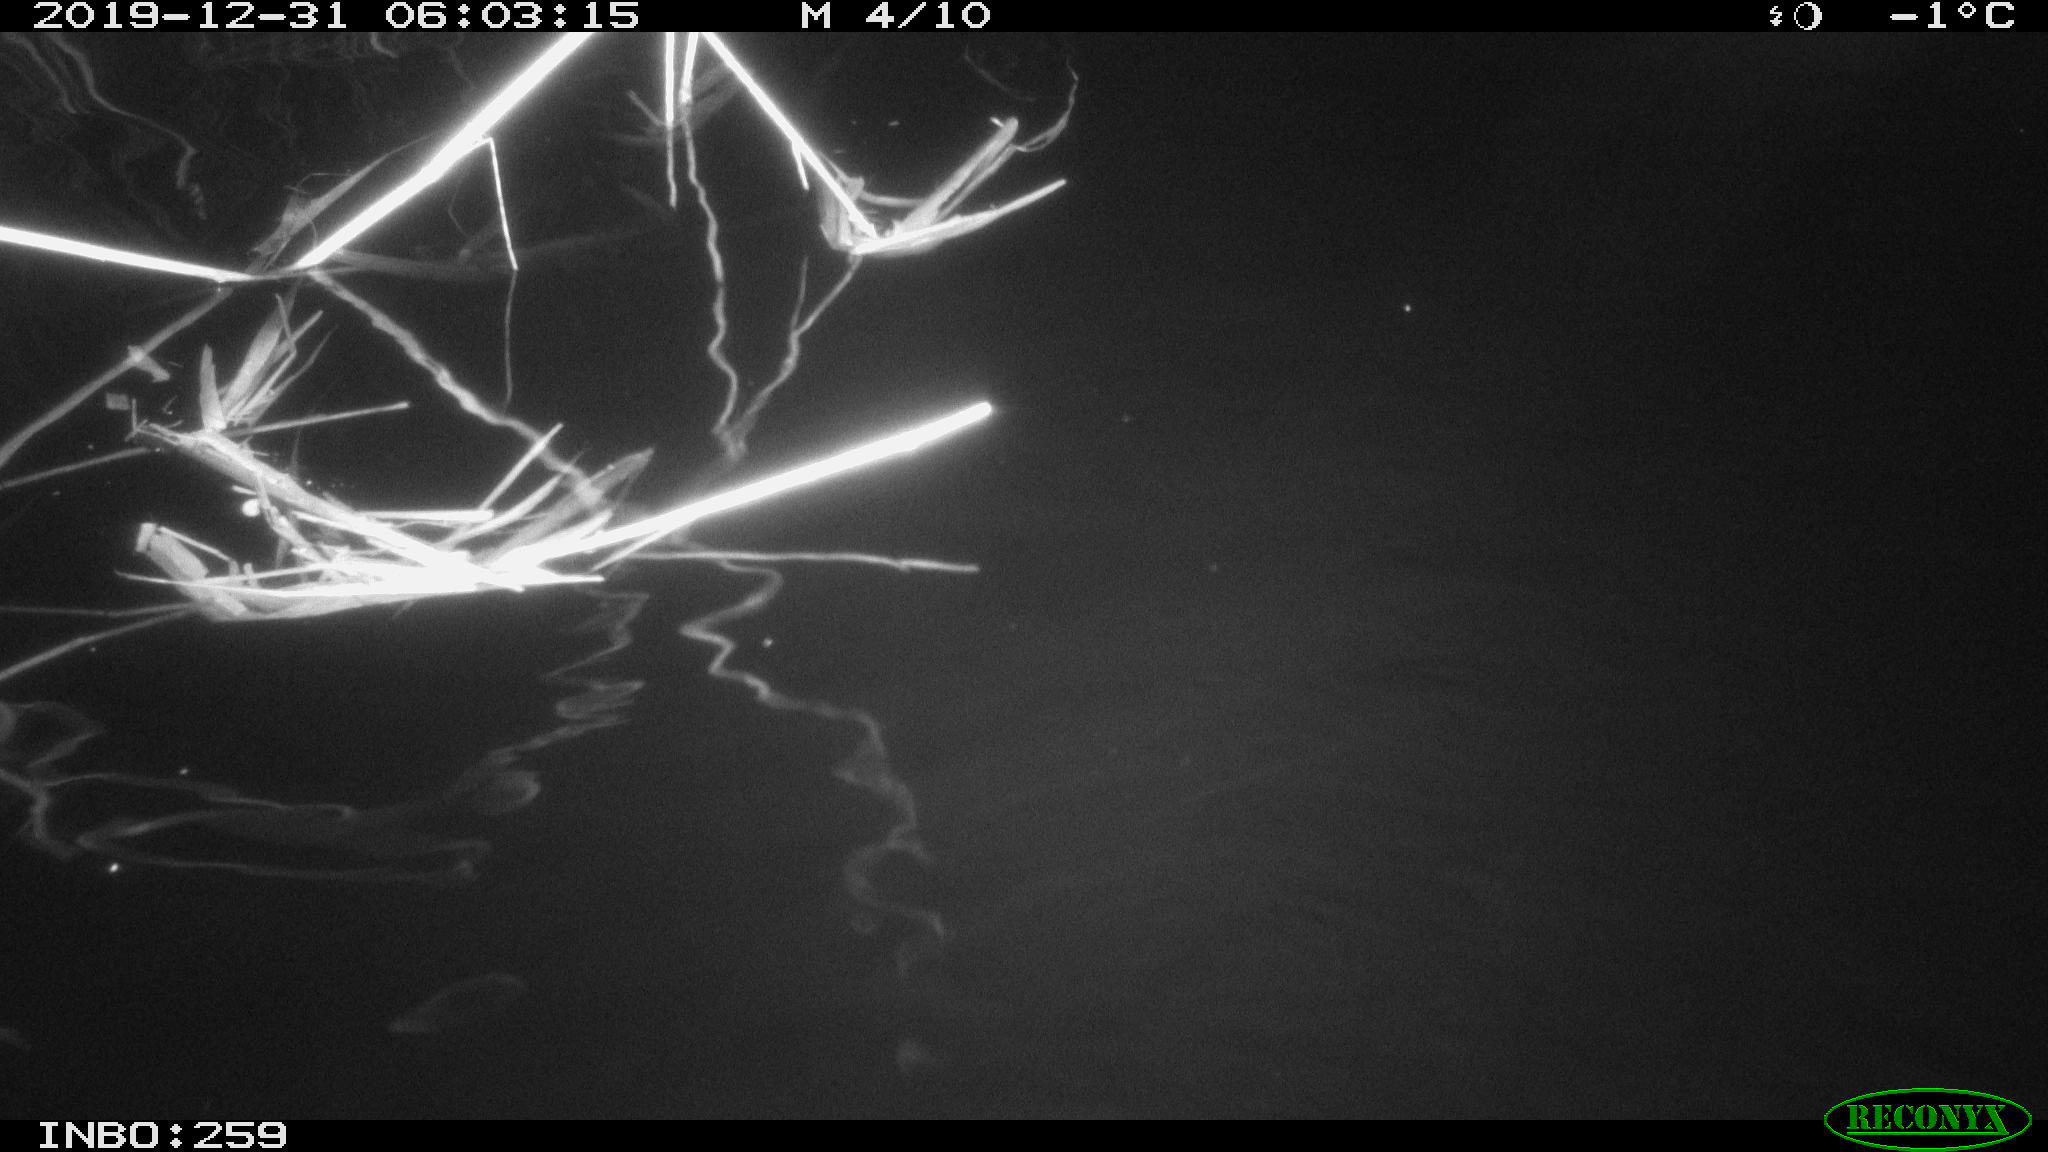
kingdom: Animalia
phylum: Chordata
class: Mammalia
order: Rodentia
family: Cricetidae
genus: Ondatra
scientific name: Ondatra zibethicus
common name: Muskrat
